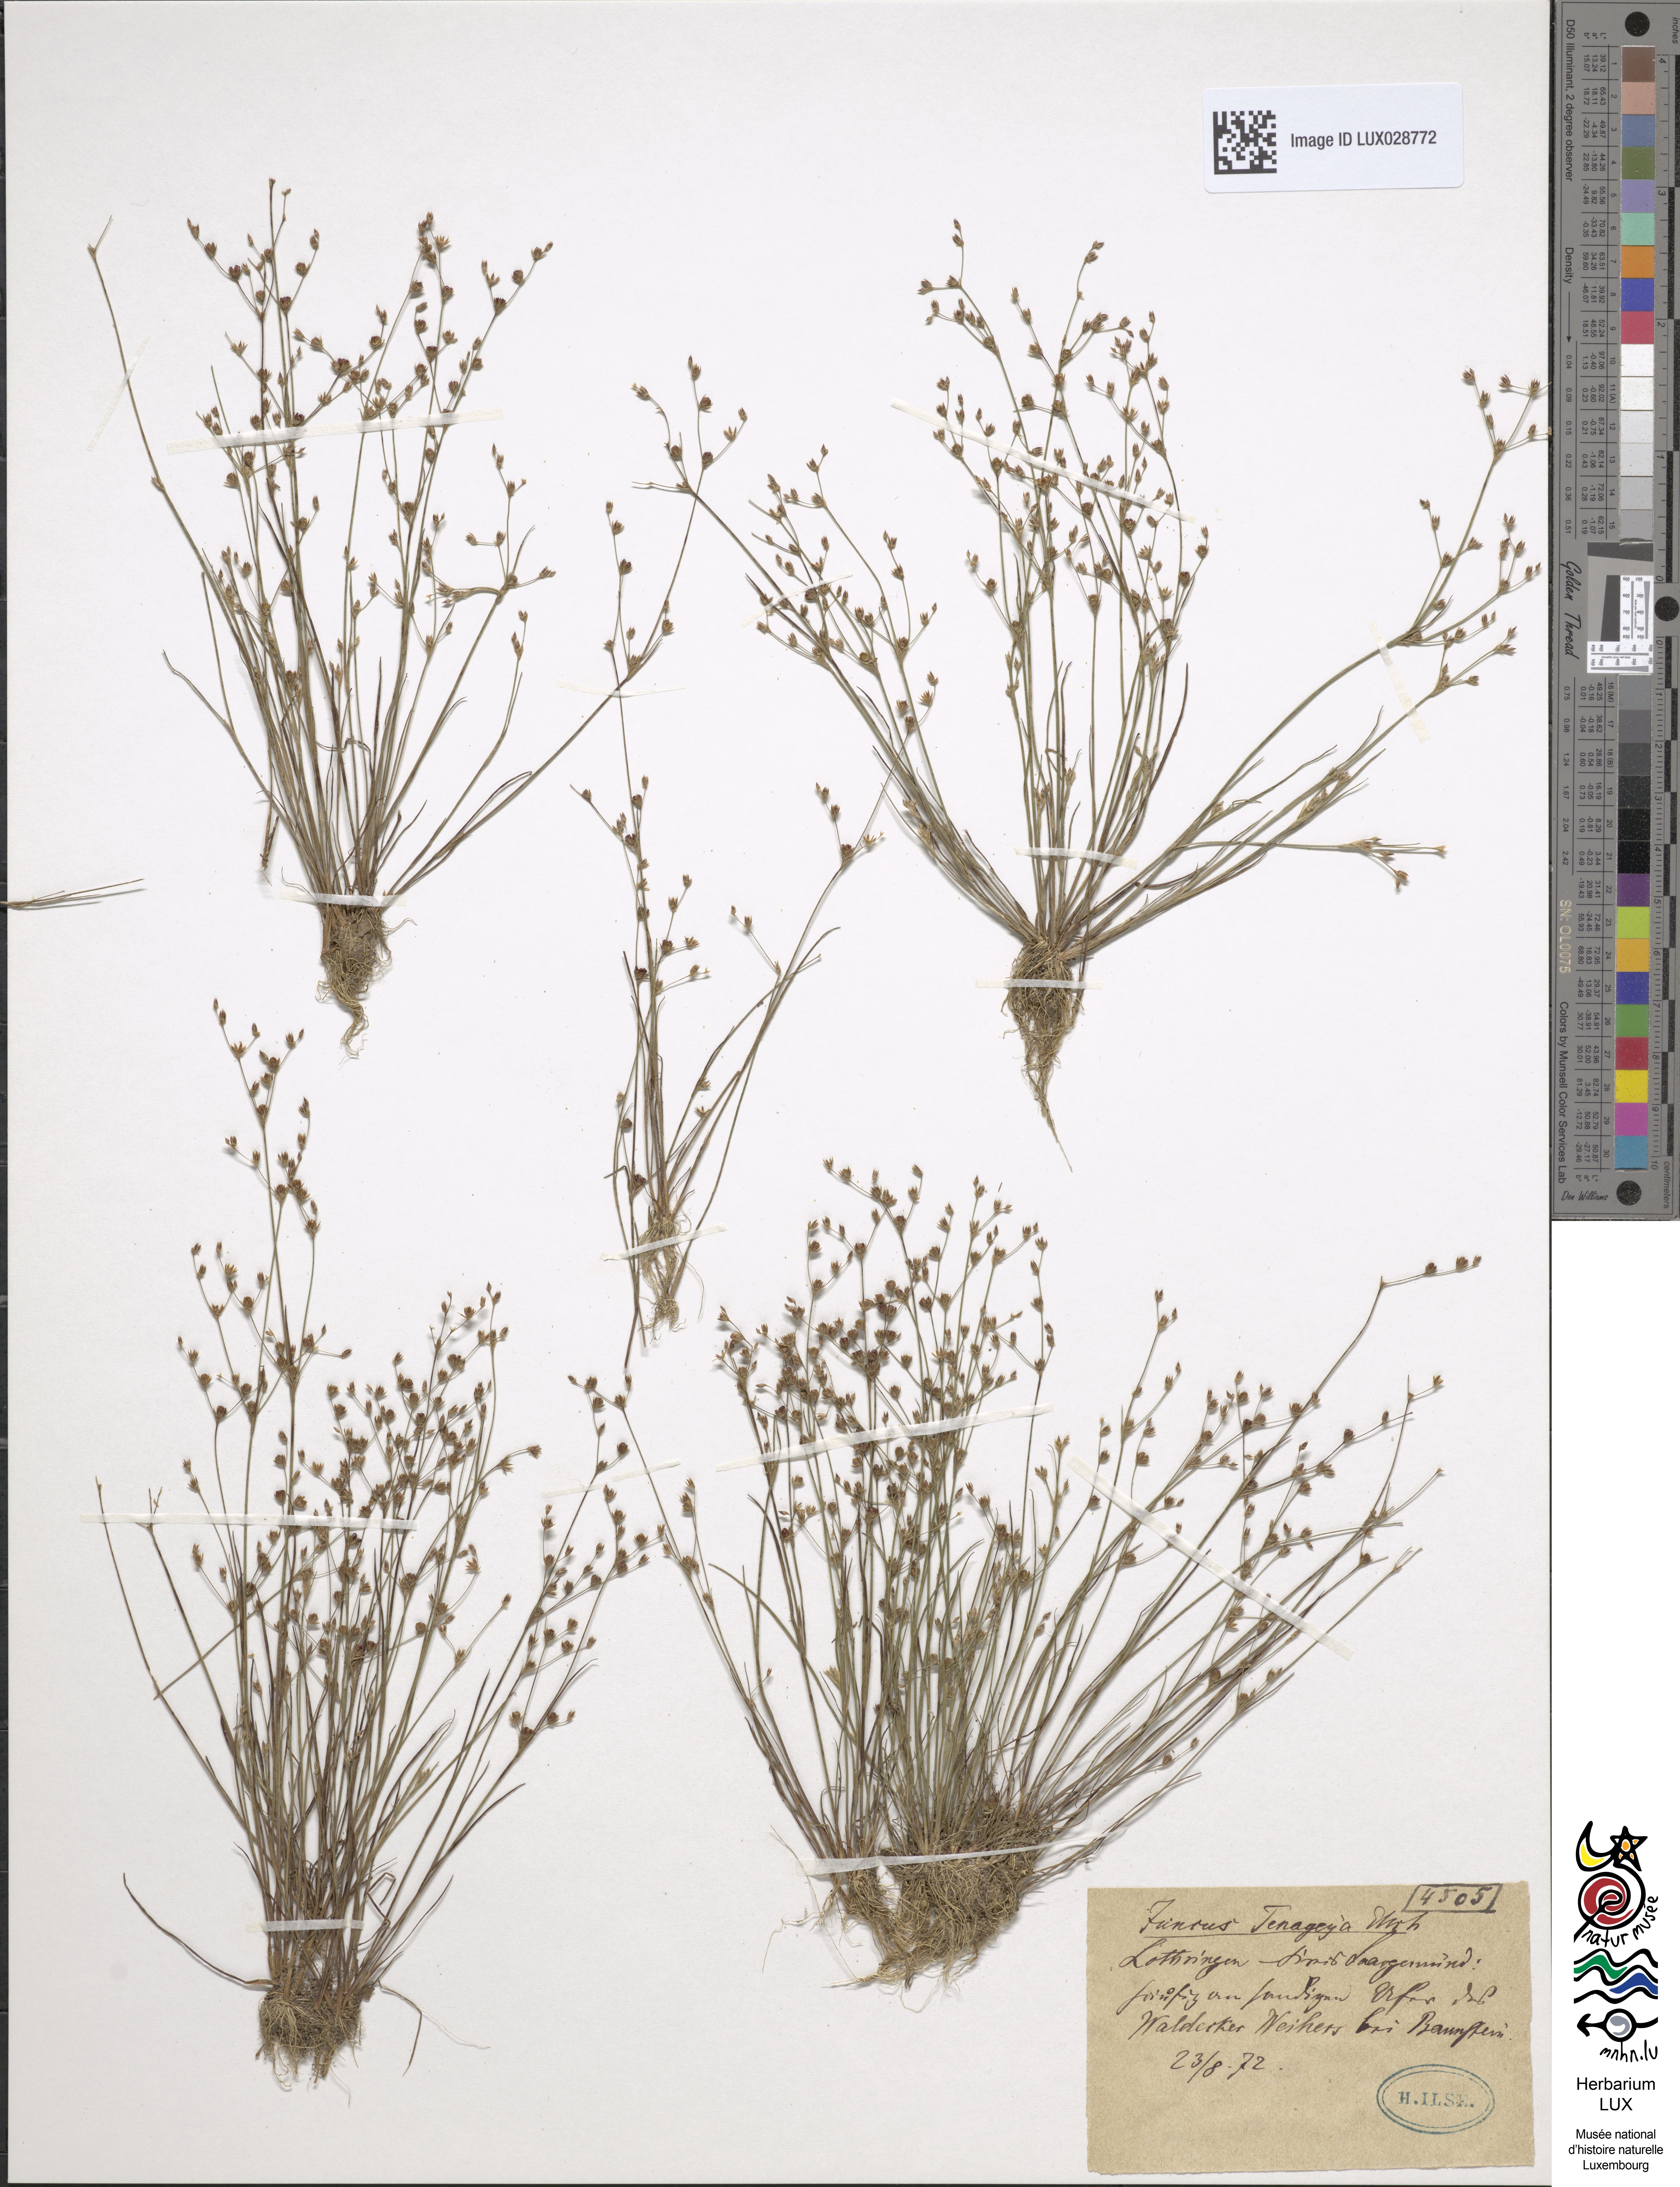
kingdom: Plantae
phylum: Tracheophyta
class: Liliopsida
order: Poales
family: Juncaceae
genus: Juncus
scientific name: Juncus tenageia
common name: Sand rush
